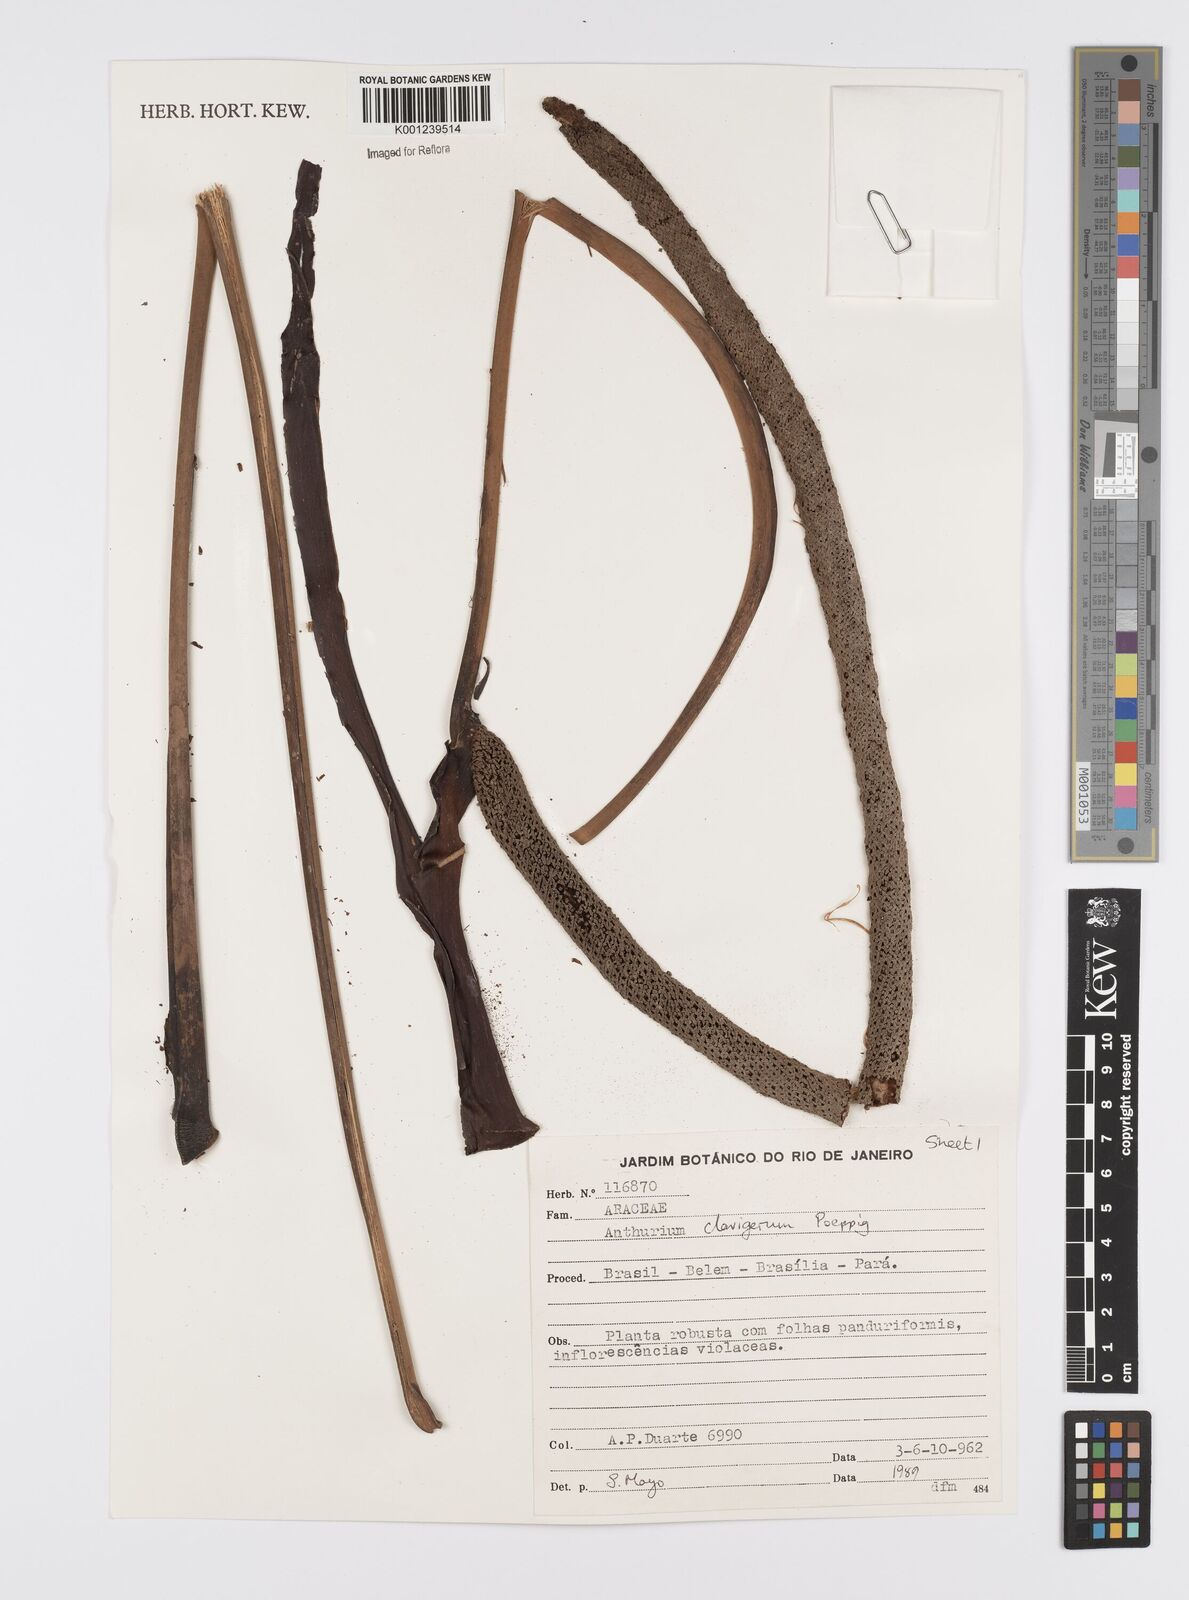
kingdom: Plantae
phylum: Tracheophyta
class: Liliopsida
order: Alismatales
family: Araceae
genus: Anthurium
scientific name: Anthurium clavigerum
